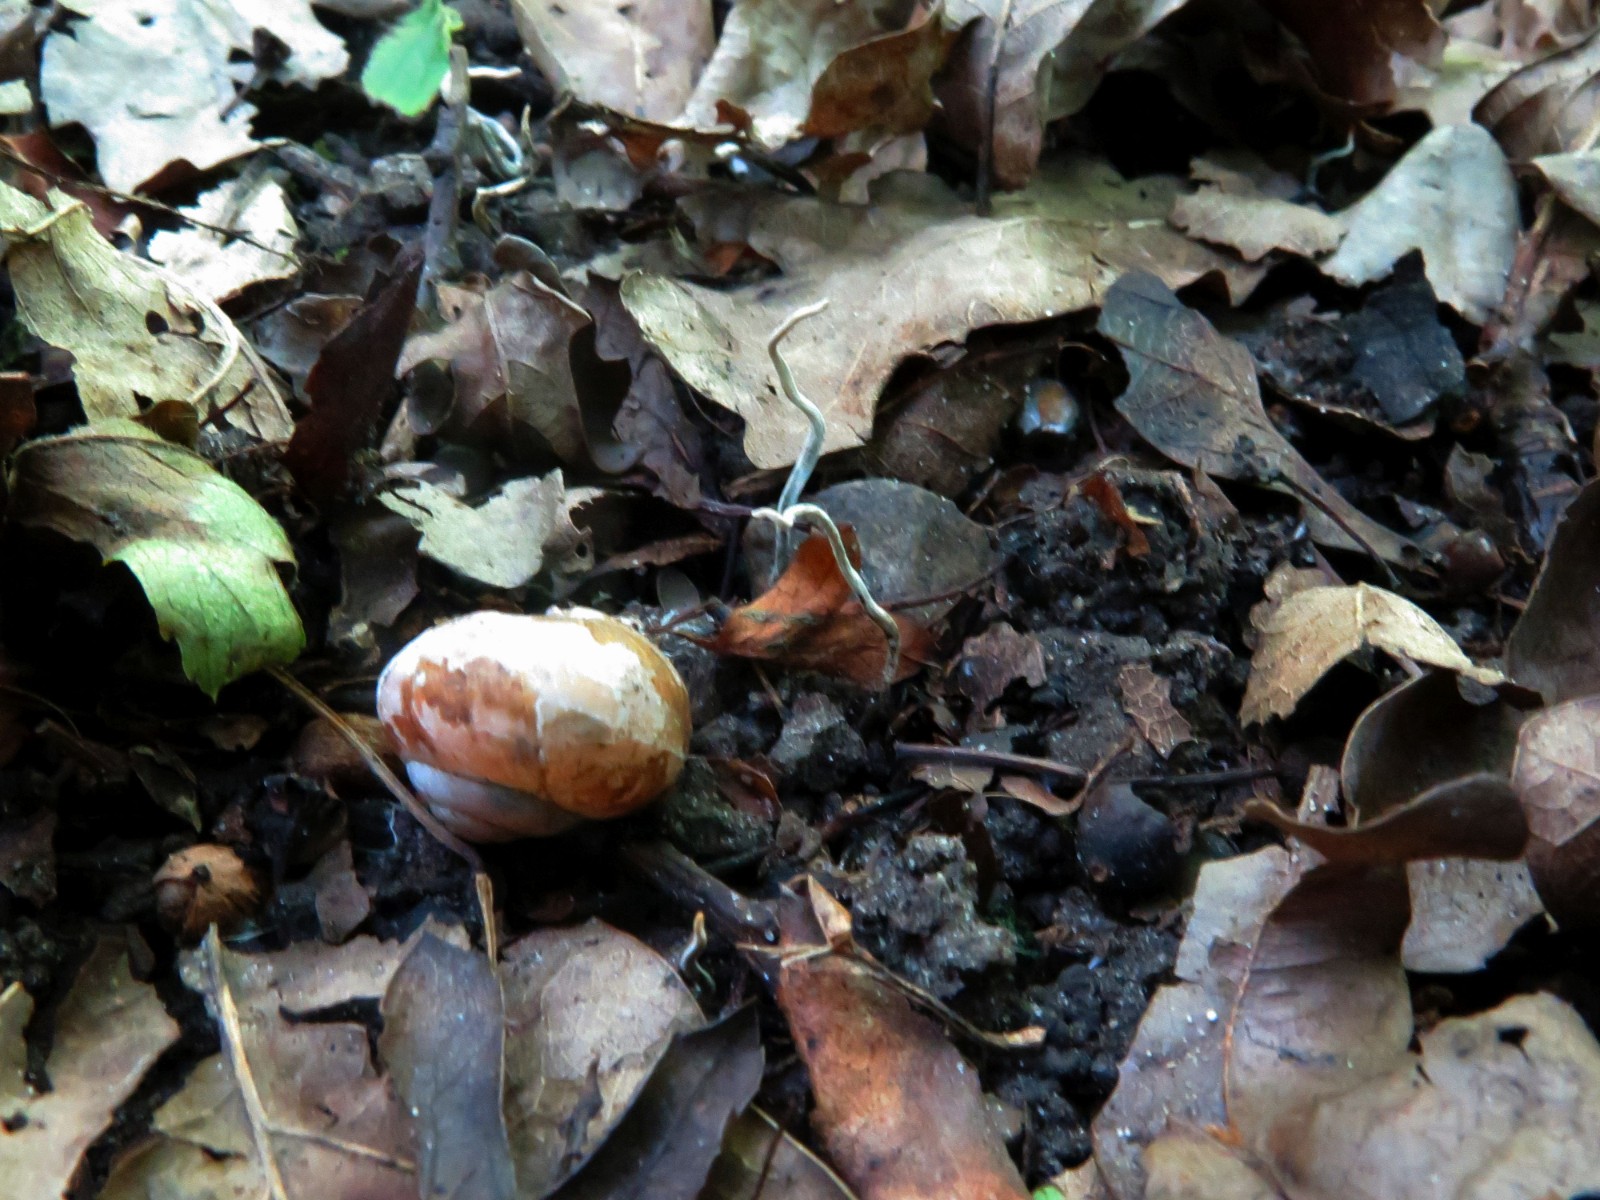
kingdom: Fungi
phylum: Ascomycota
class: Sordariomycetes
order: Xylariales
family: Xylariaceae
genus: Xylaria
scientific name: Xylaria oxyacanthae
